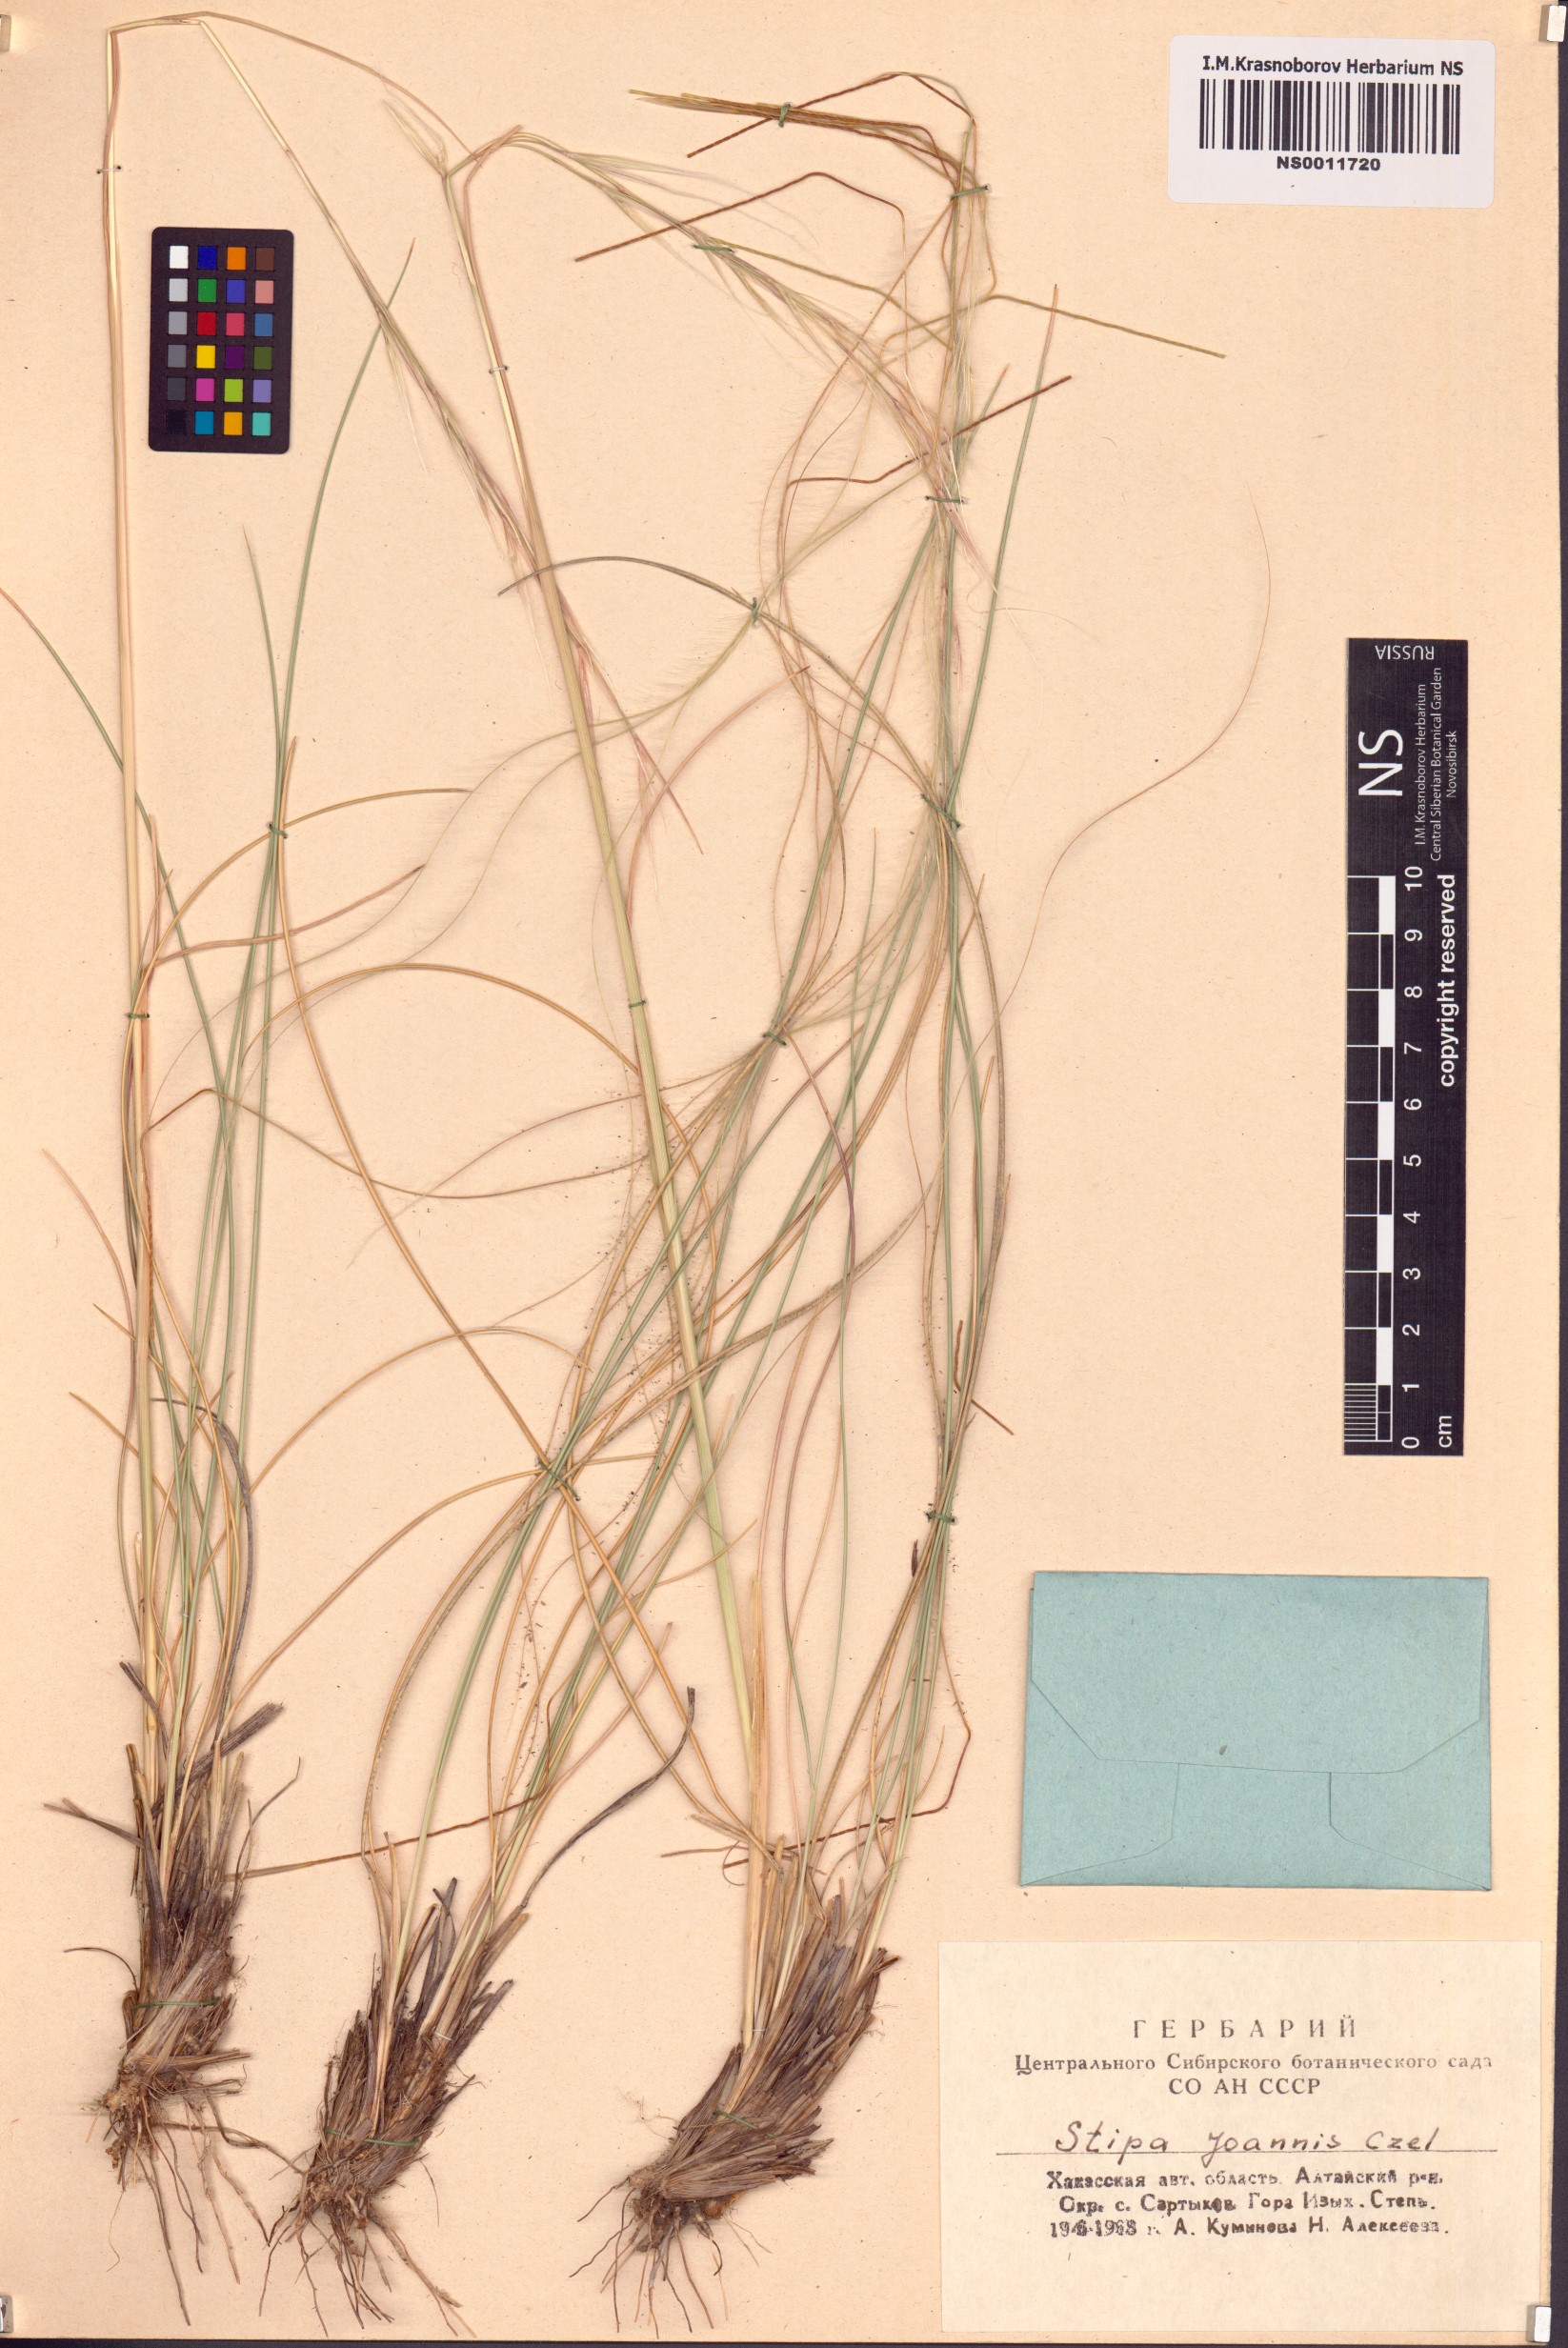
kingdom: Plantae
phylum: Tracheophyta
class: Liliopsida
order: Poales
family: Poaceae
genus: Stipa
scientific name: Stipa pennata
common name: European feather grass
